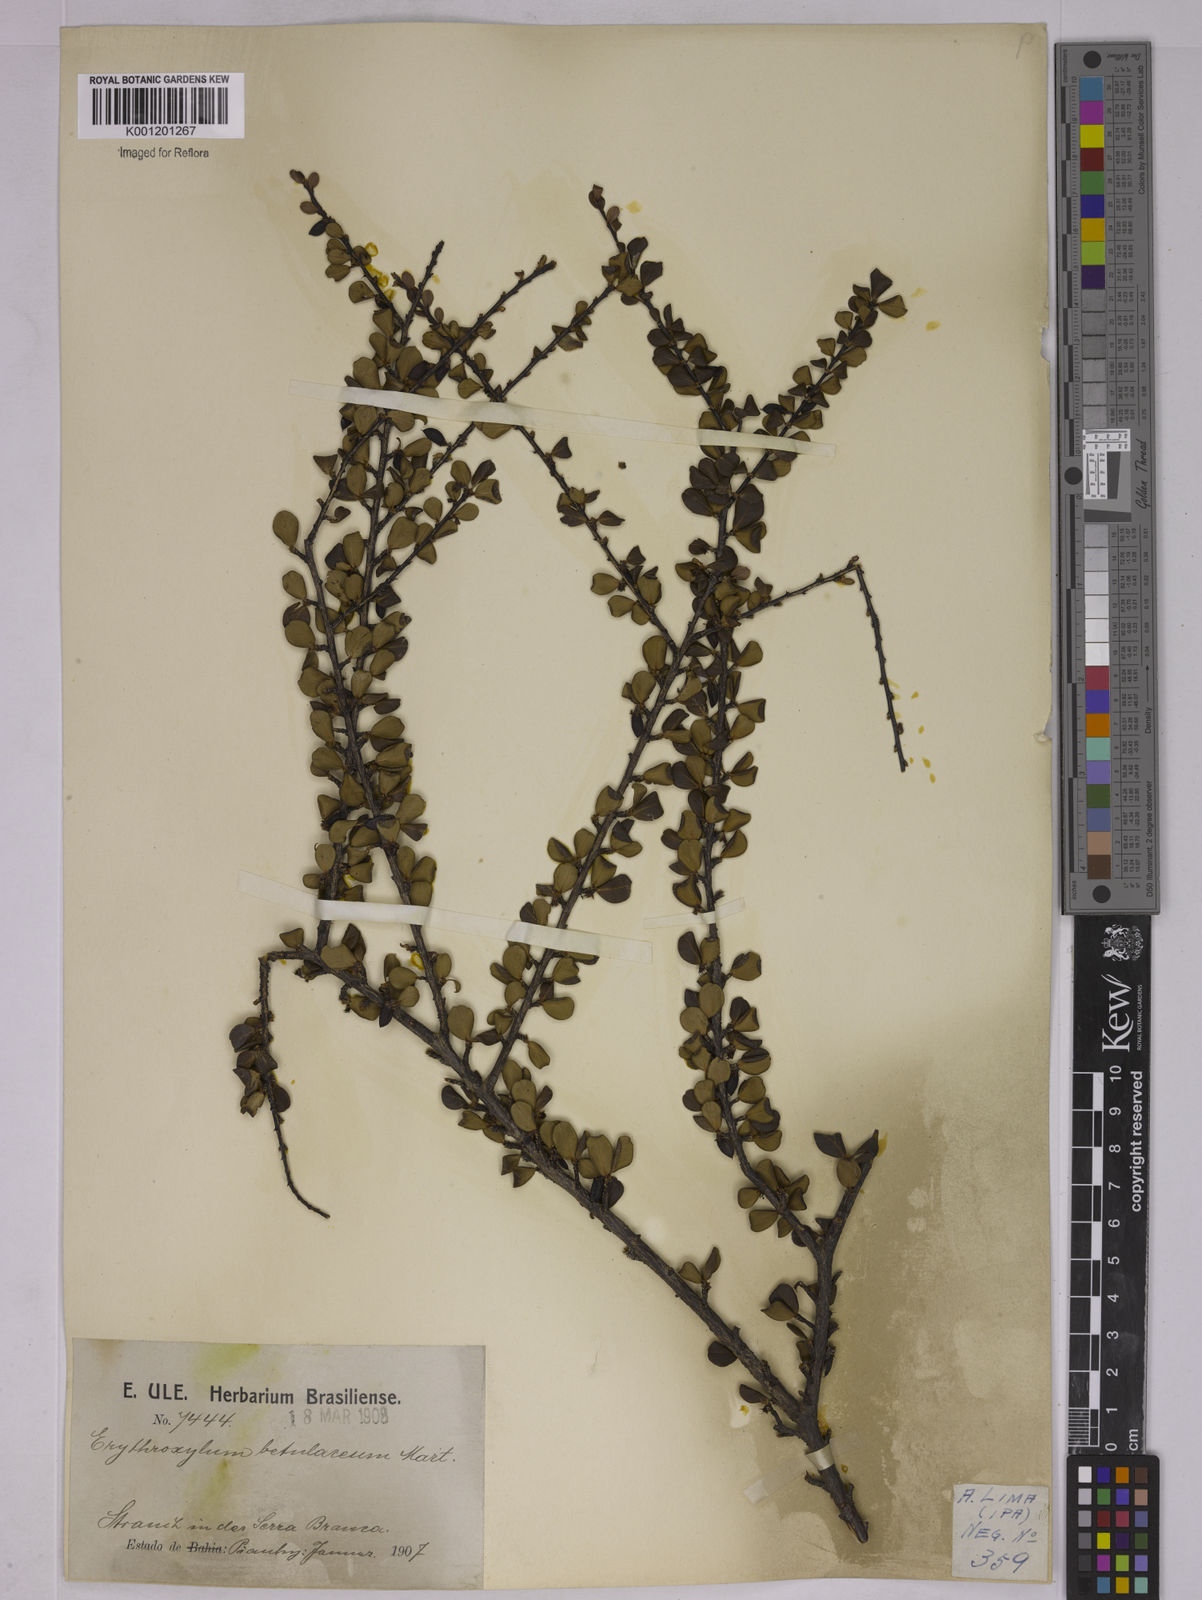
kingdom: Plantae
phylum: Tracheophyta
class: Magnoliopsida
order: Malpighiales
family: Erythroxylaceae
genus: Erythroxylum
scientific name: Erythroxylum betulaceum
